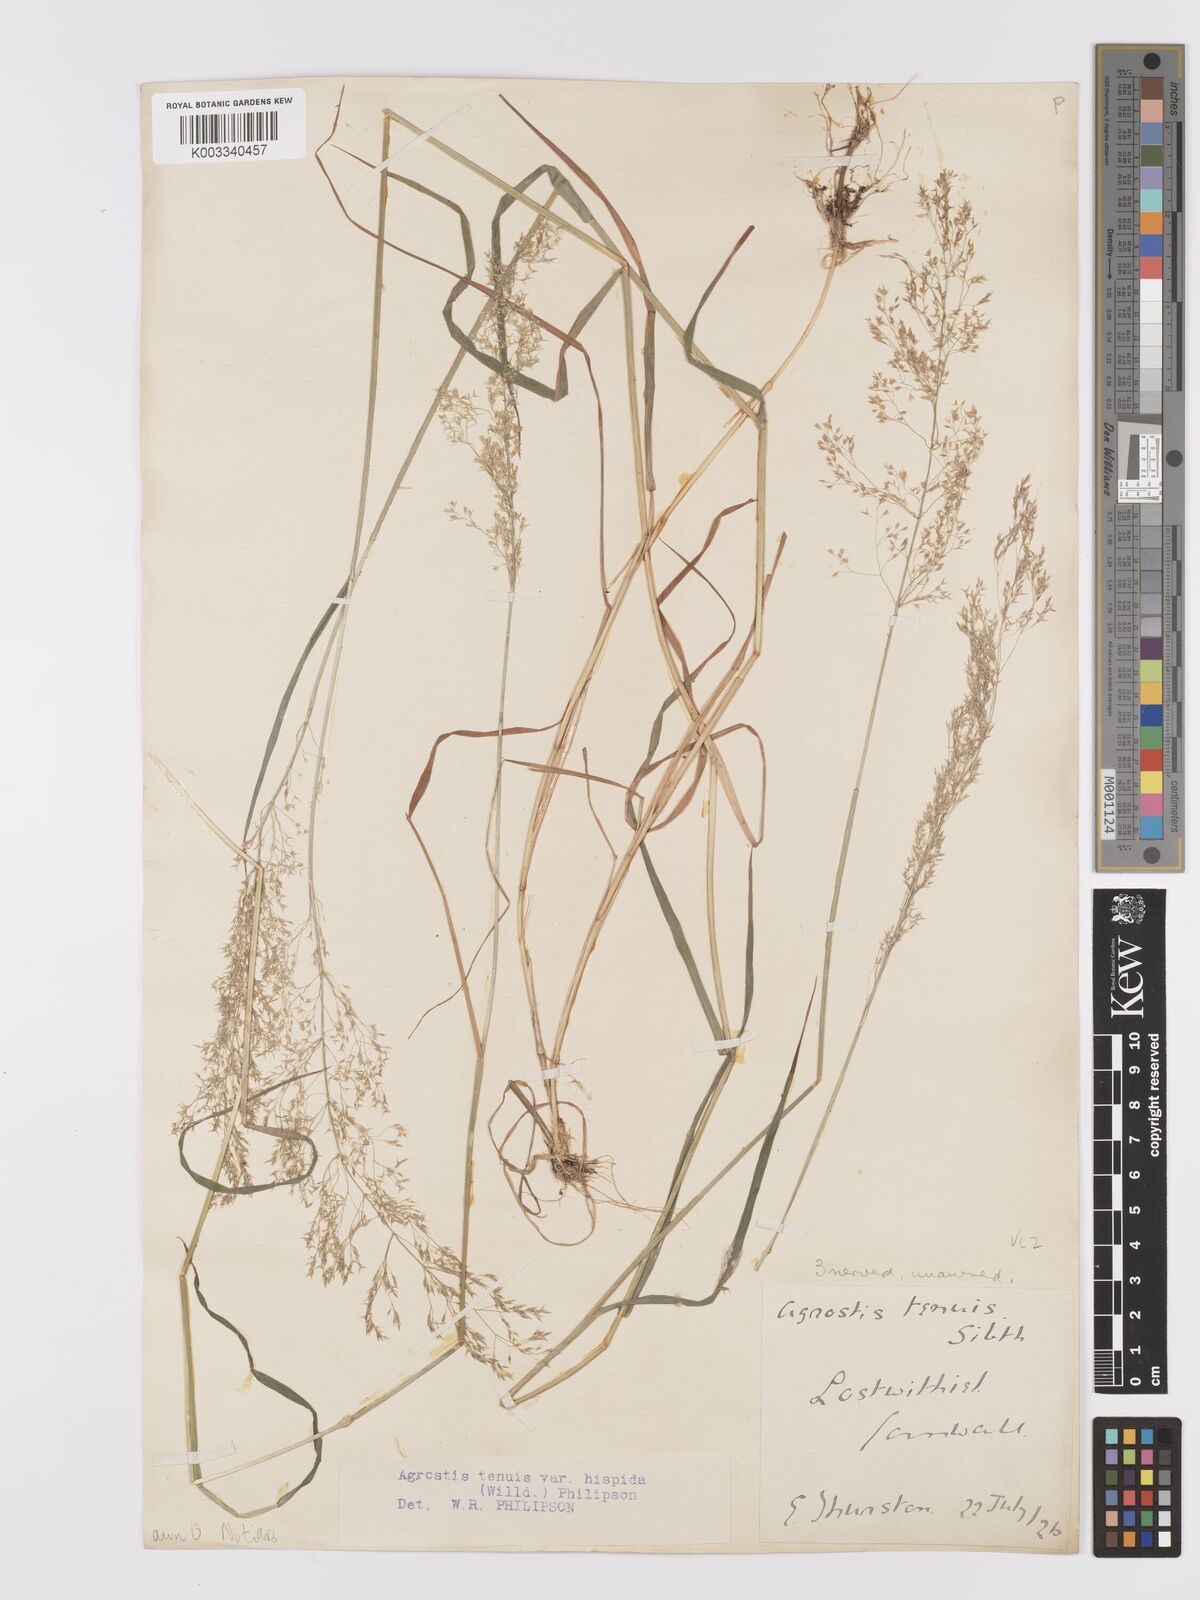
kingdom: Plantae
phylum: Tracheophyta
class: Liliopsida
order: Poales
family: Poaceae
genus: Agrostis
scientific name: Agrostis capillaris
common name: Colonial bentgrass
